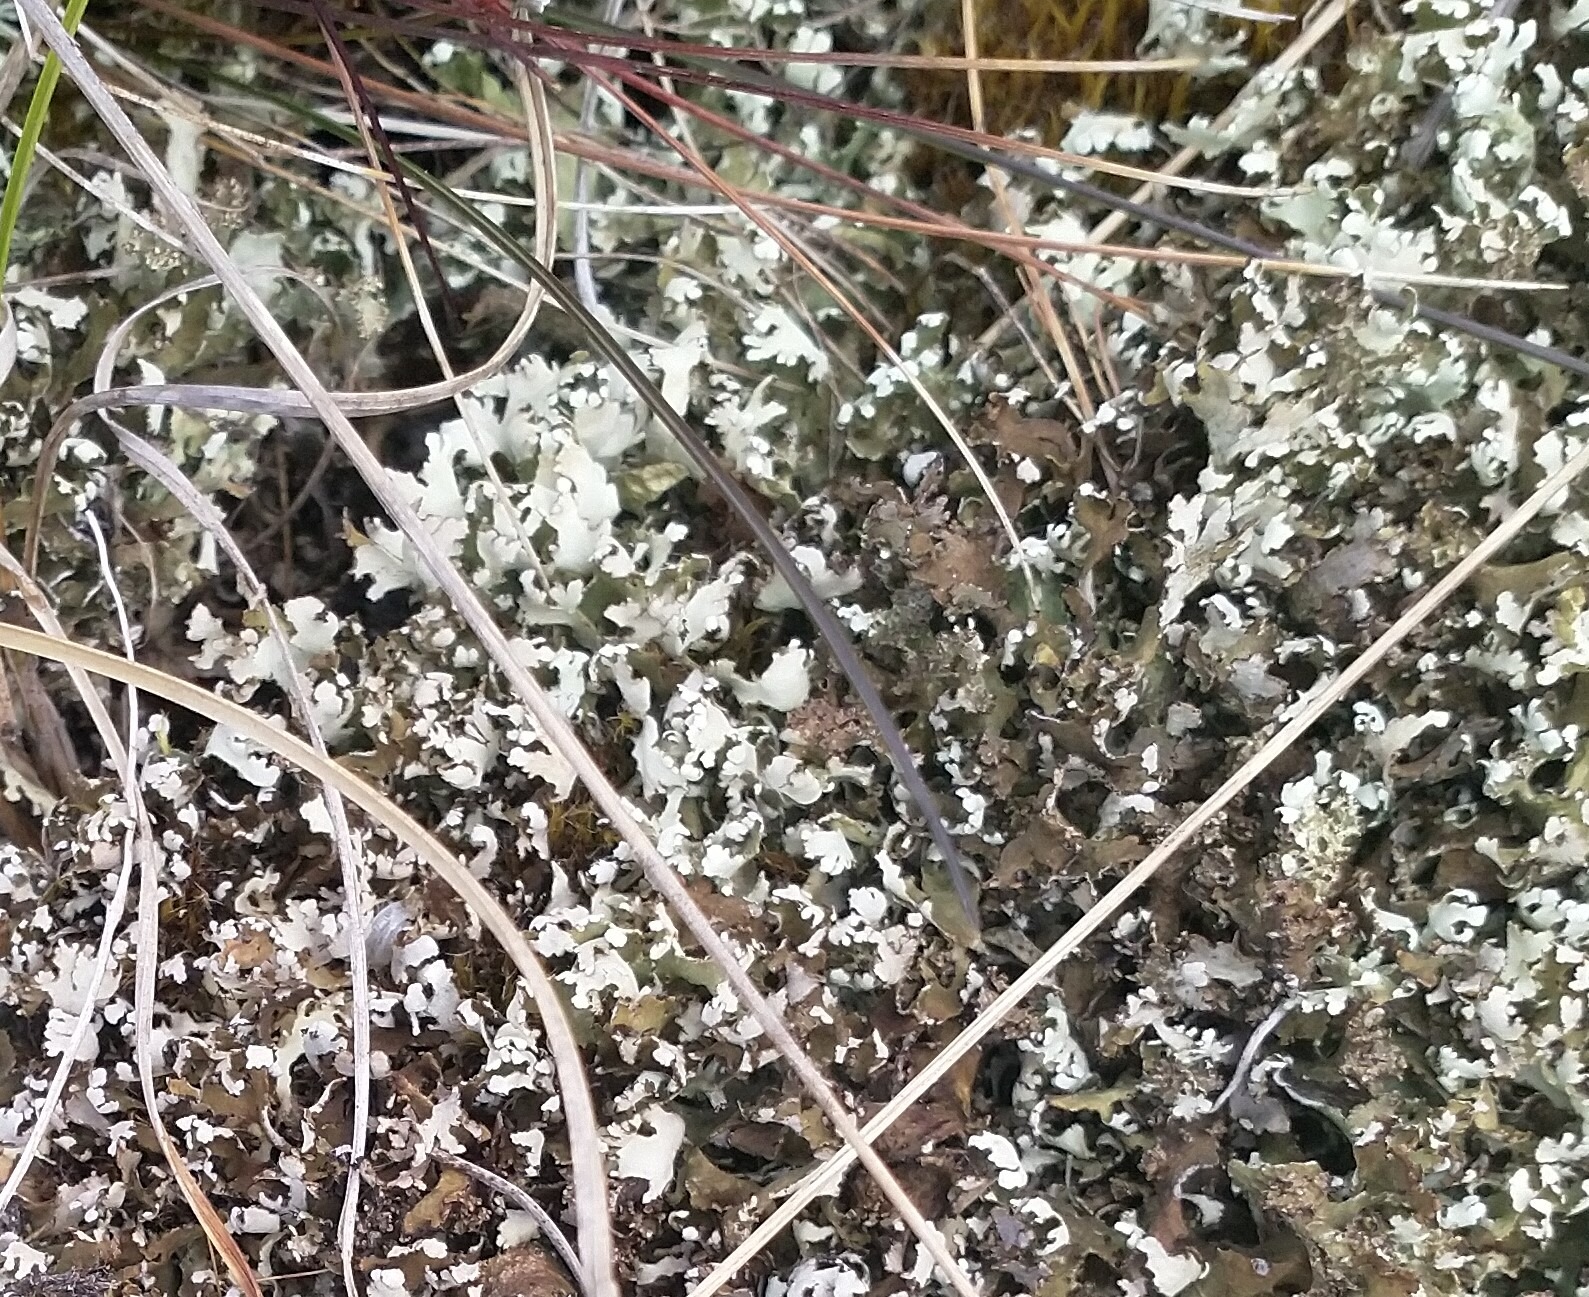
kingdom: Fungi
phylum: Ascomycota
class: Lecanoromycetes
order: Lecanorales
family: Cladoniaceae
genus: Cladonia
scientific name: Cladonia foliacea
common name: Fliget bægerlav
